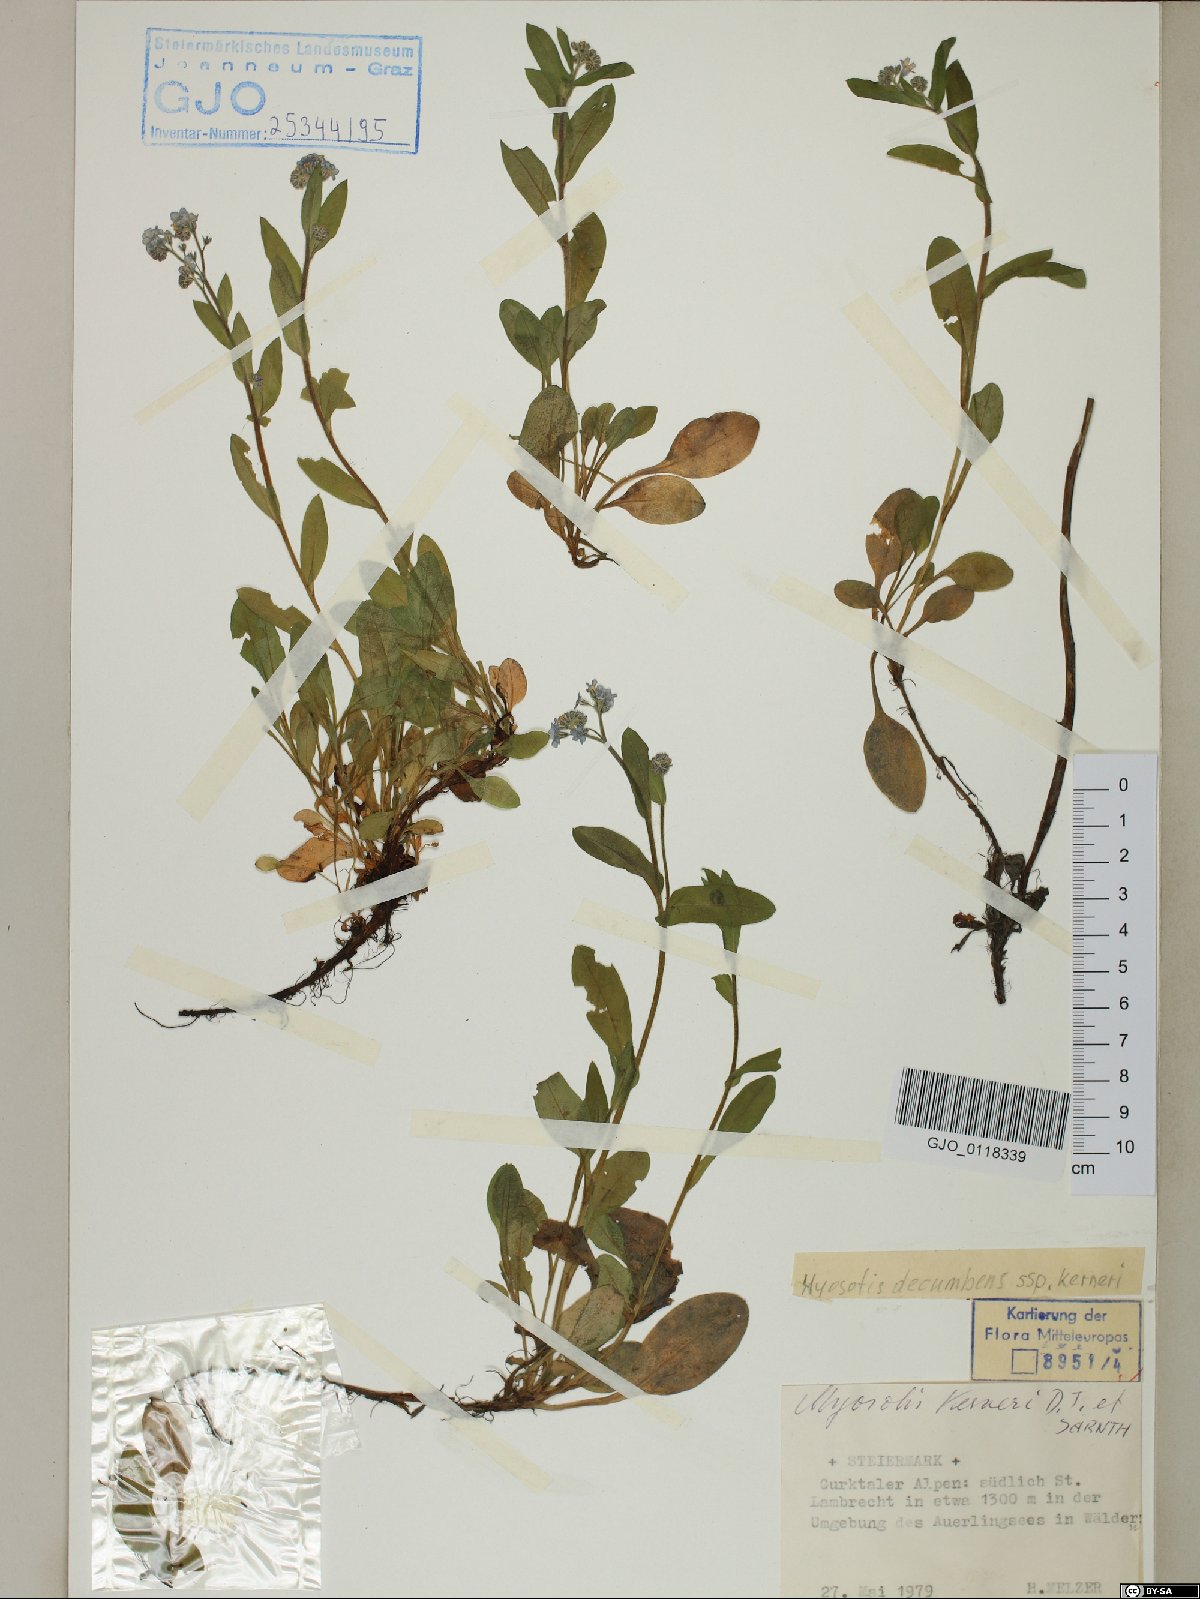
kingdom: Plantae
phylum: Tracheophyta
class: Magnoliopsida
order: Boraginales
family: Boraginaceae
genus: Myosotis
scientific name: Myosotis decumbens
